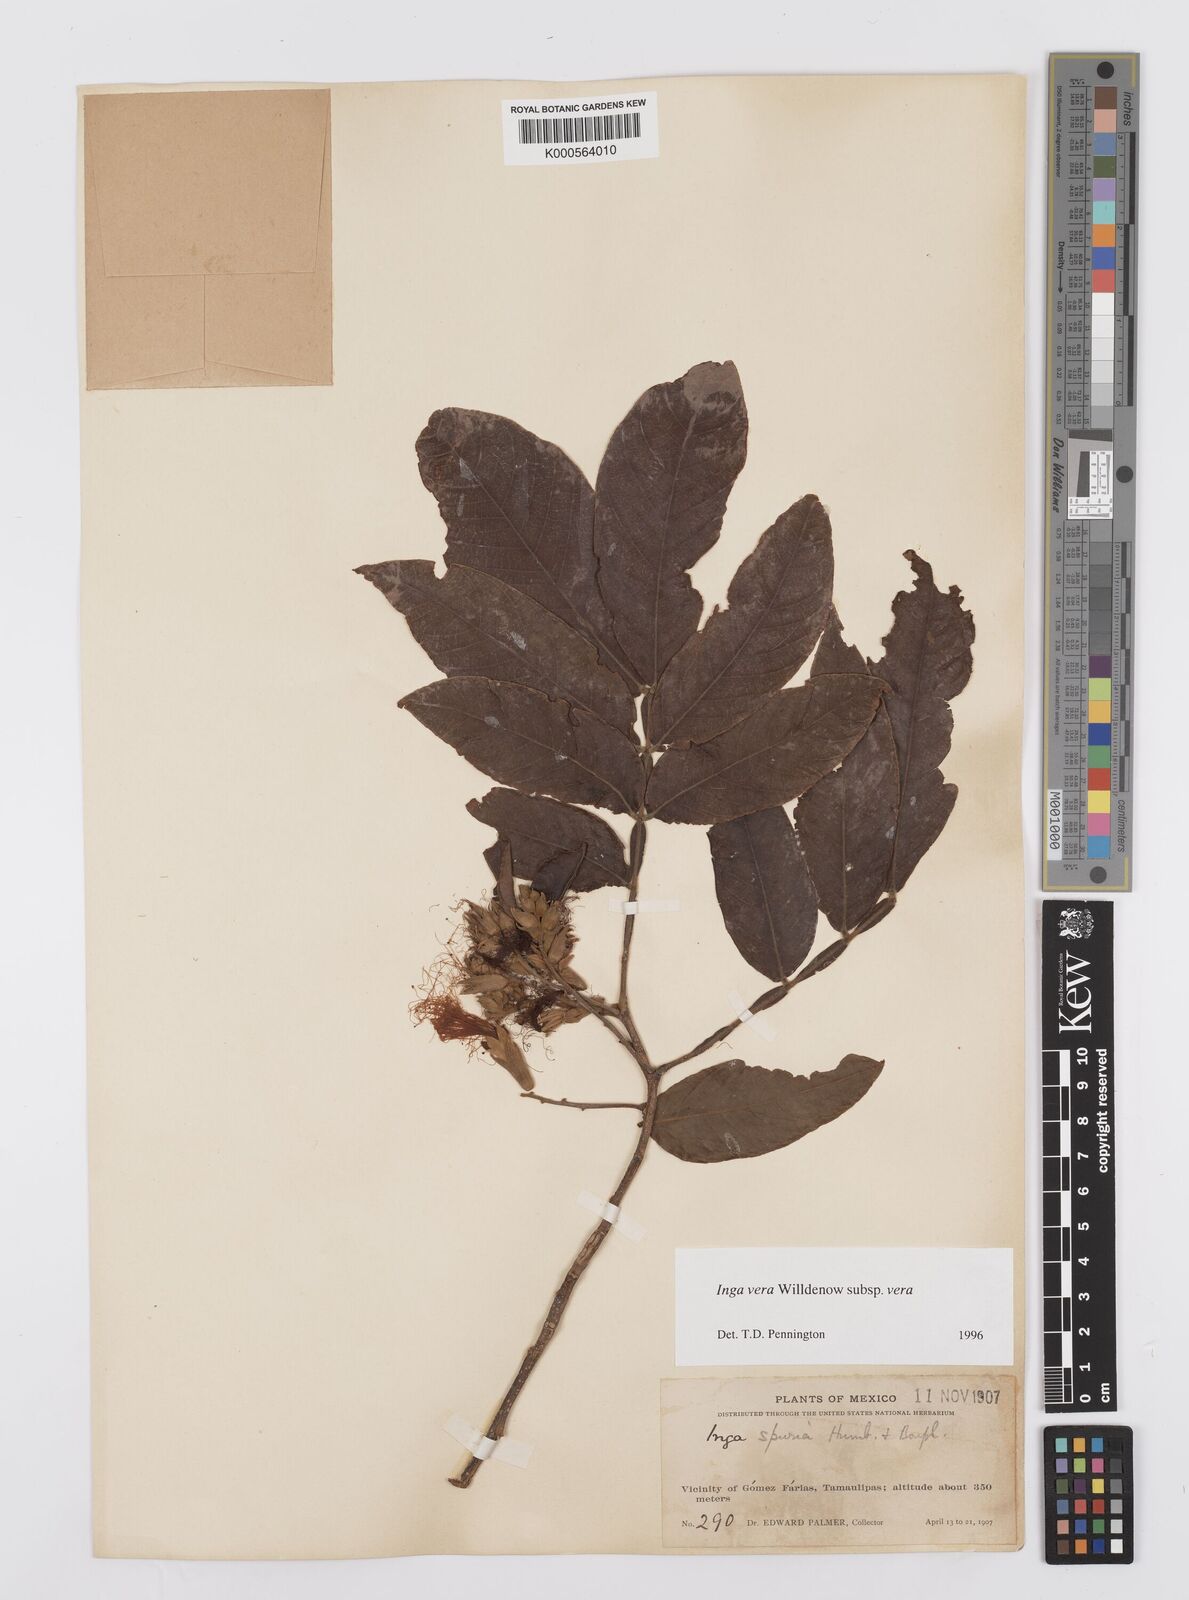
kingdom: Plantae
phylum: Tracheophyta
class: Magnoliopsida
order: Fabales
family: Fabaceae
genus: Inga
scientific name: Inga vera
